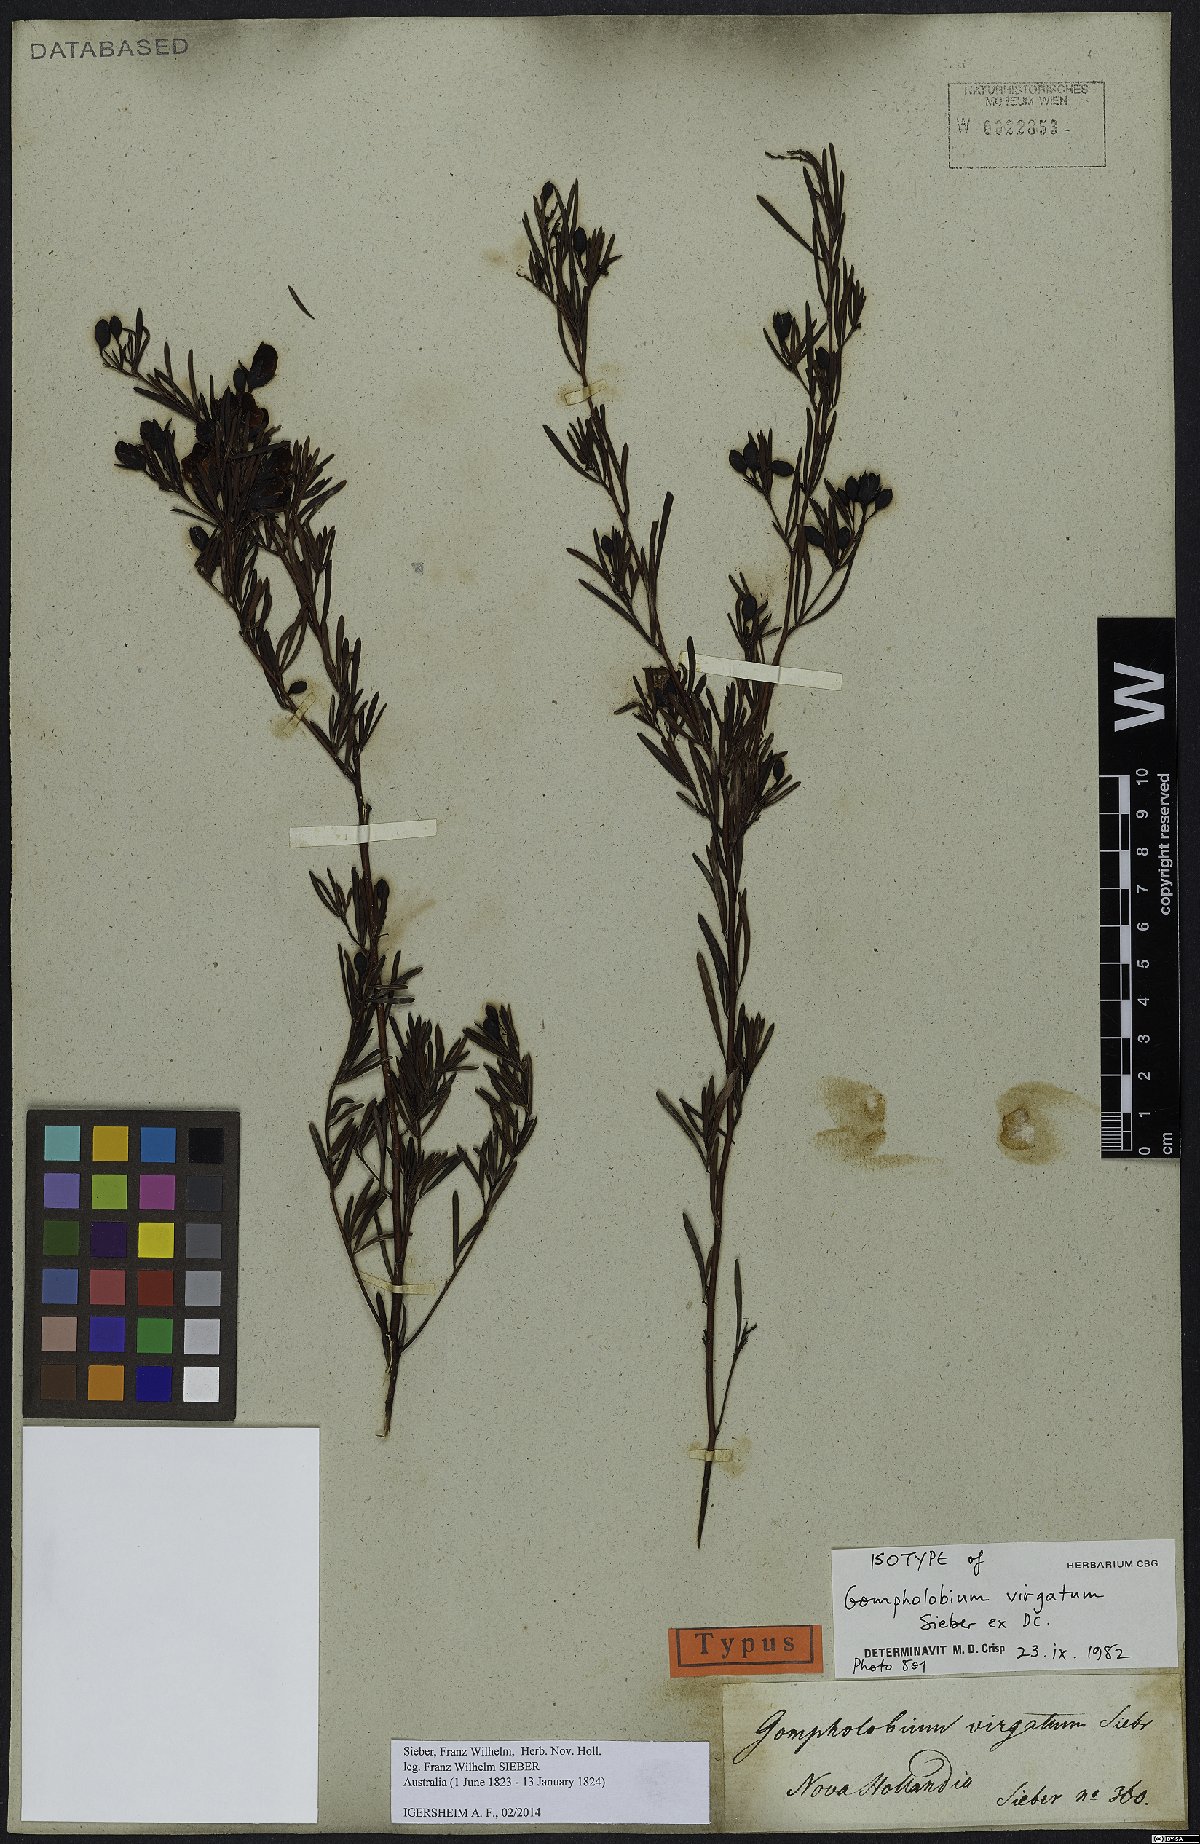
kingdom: Plantae
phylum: Tracheophyta
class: Magnoliopsida
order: Fabales
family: Fabaceae
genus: Gompholobium
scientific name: Gompholobium virgatum
